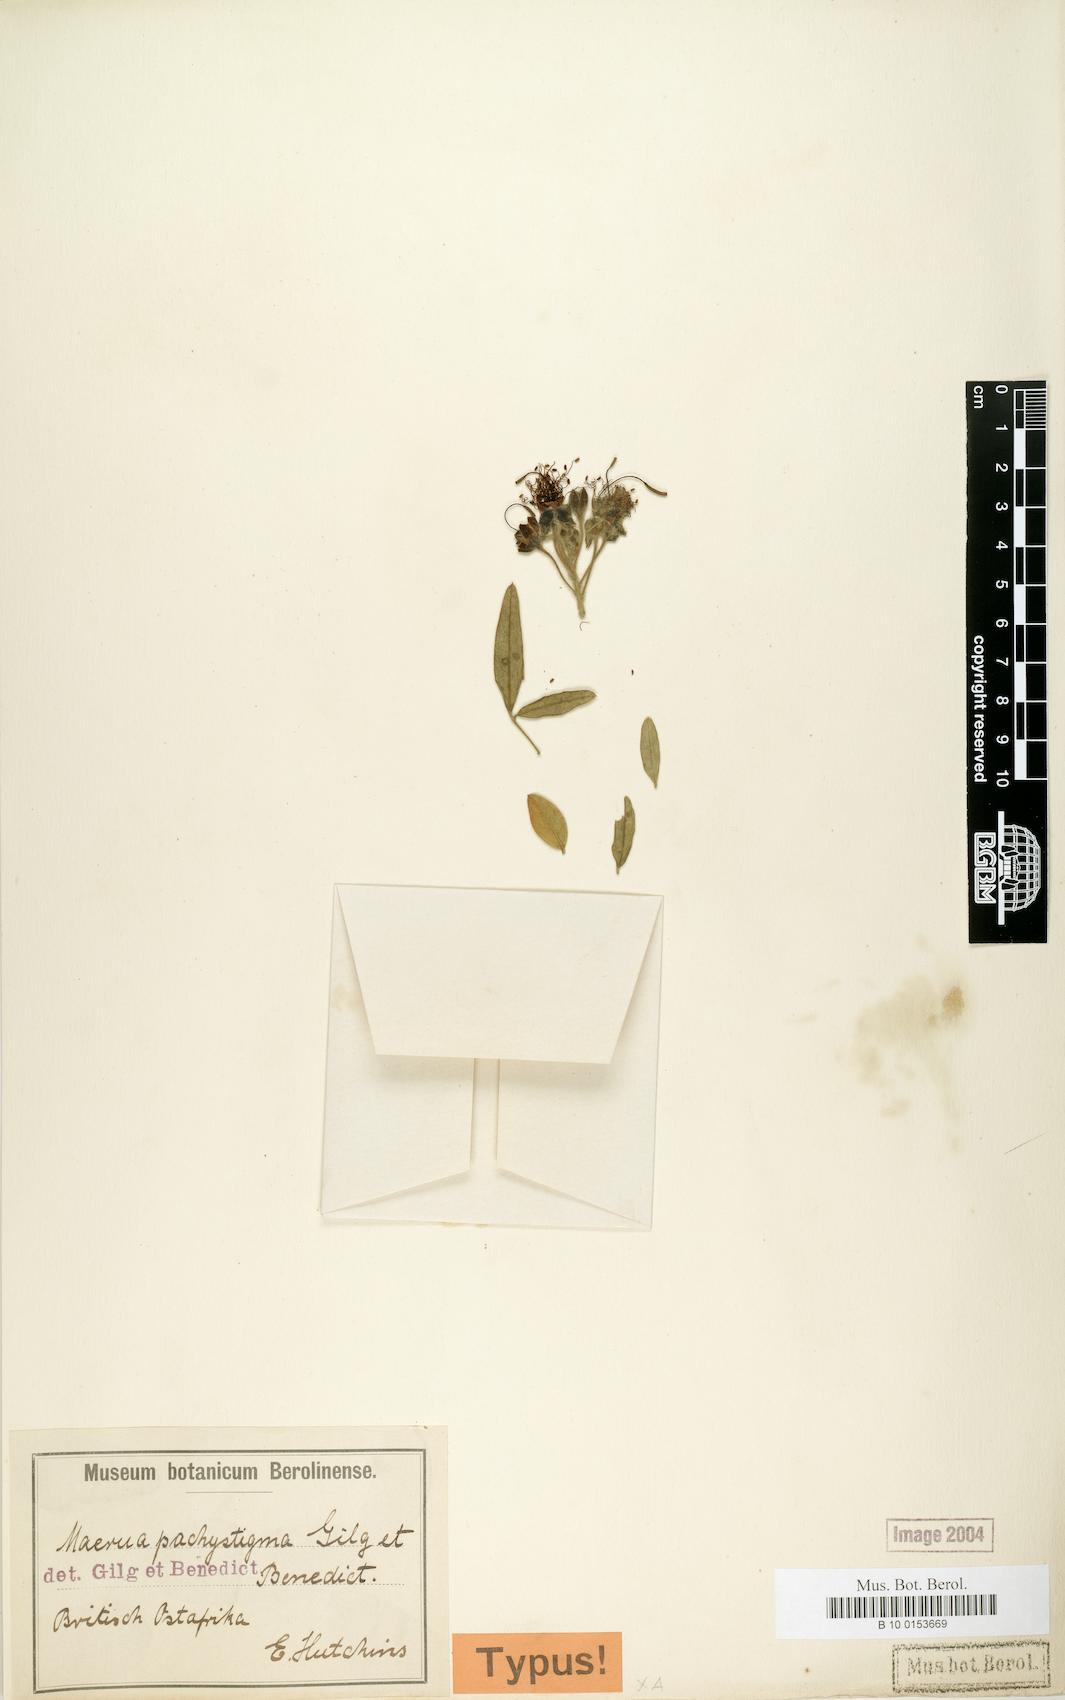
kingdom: Plantae
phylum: Tracheophyta
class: Magnoliopsida
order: Brassicales
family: Capparaceae
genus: Maerua
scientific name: Maerua triphylla
